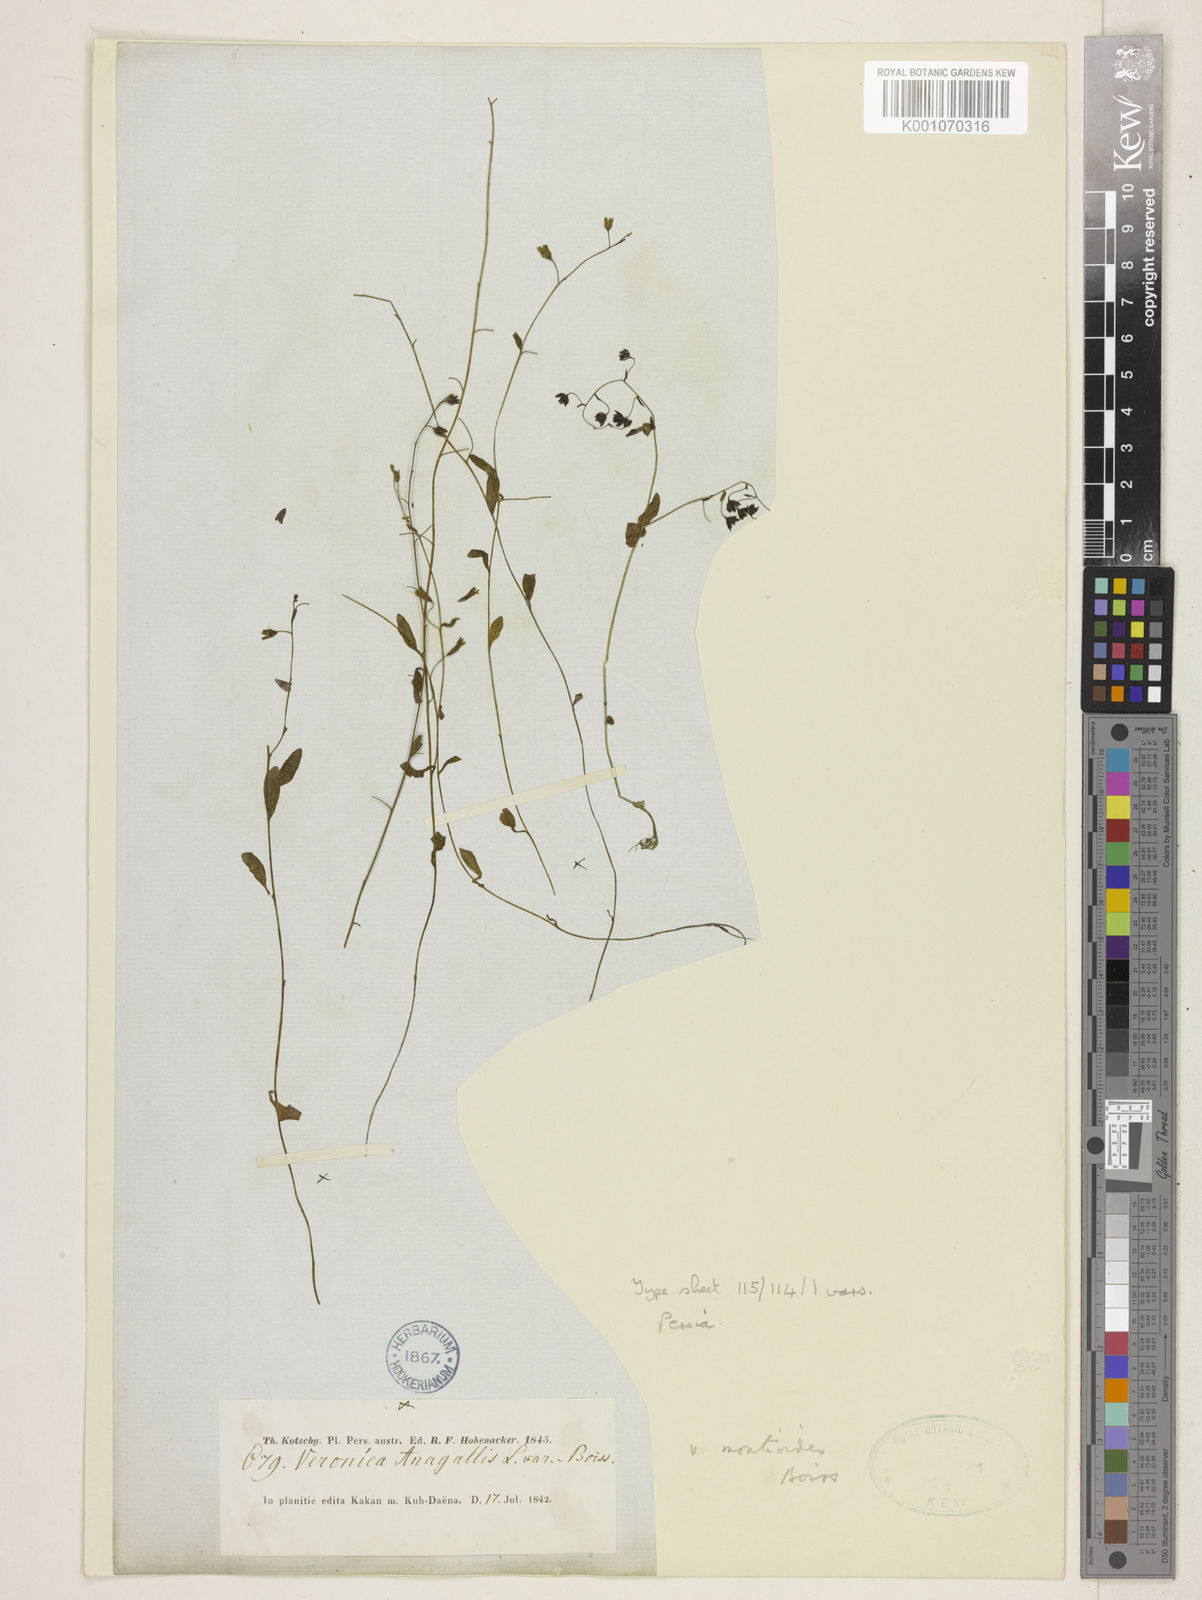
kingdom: Plantae
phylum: Tracheophyta
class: Magnoliopsida
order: Lamiales
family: Plantaginaceae
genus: Veronica
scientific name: Veronica oxycarpa
